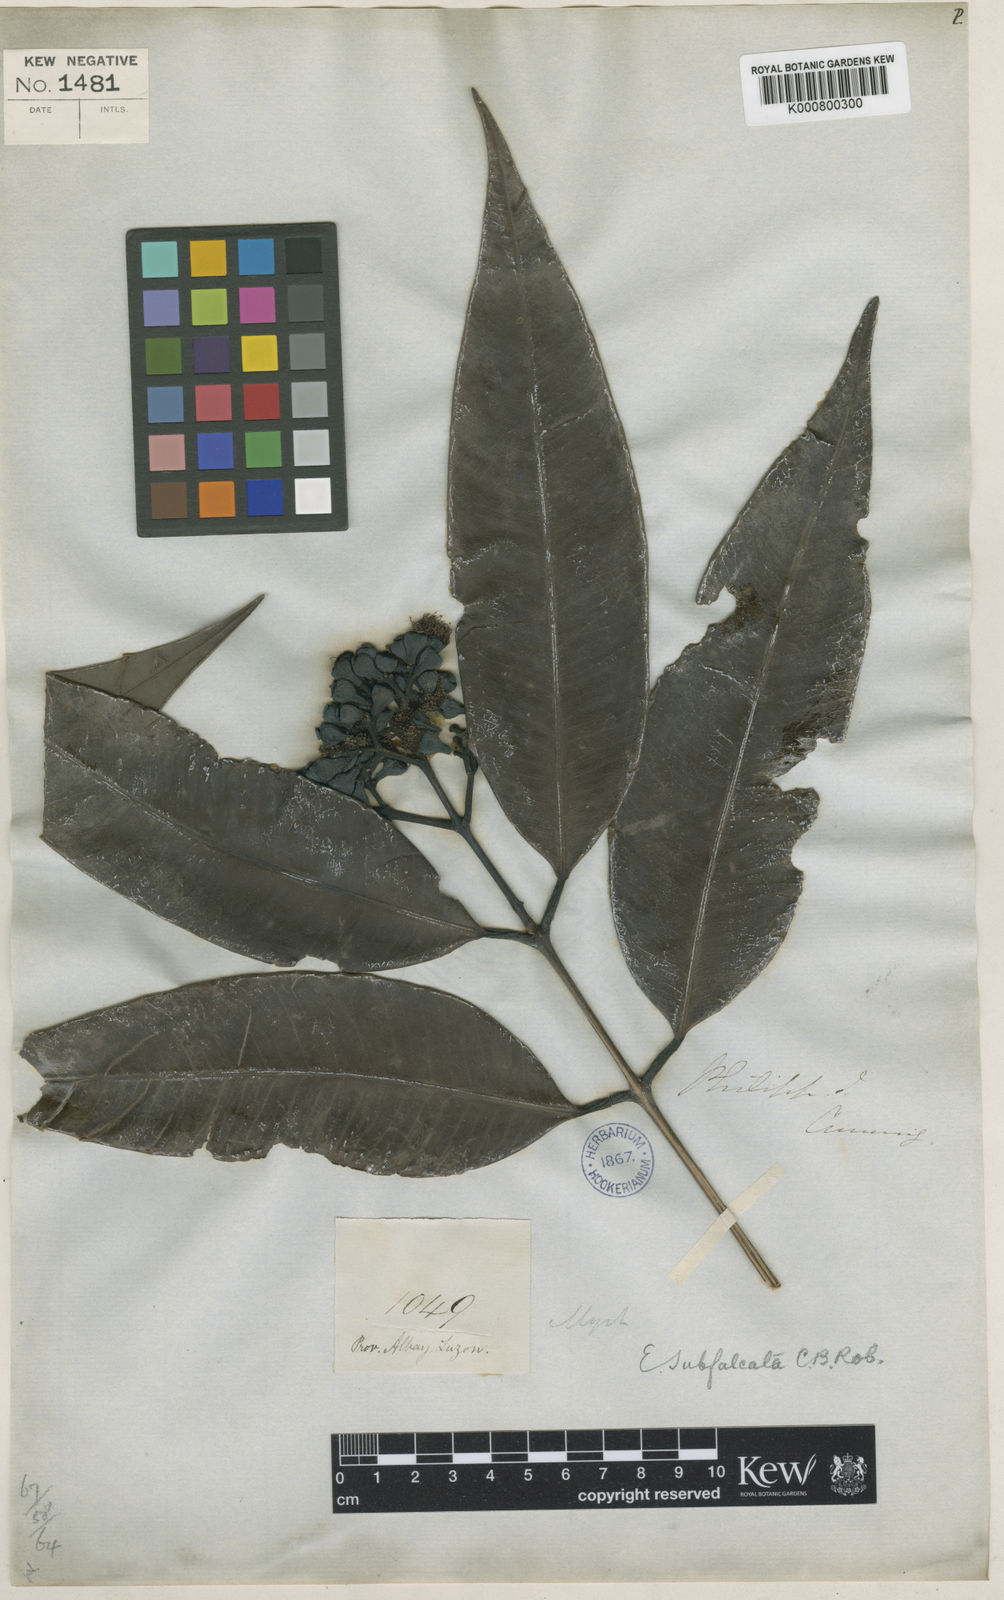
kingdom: Plantae
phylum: Tracheophyta
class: Magnoliopsida
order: Myrtales
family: Myrtaceae
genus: Syzygium
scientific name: Syzygium subfalcatum
